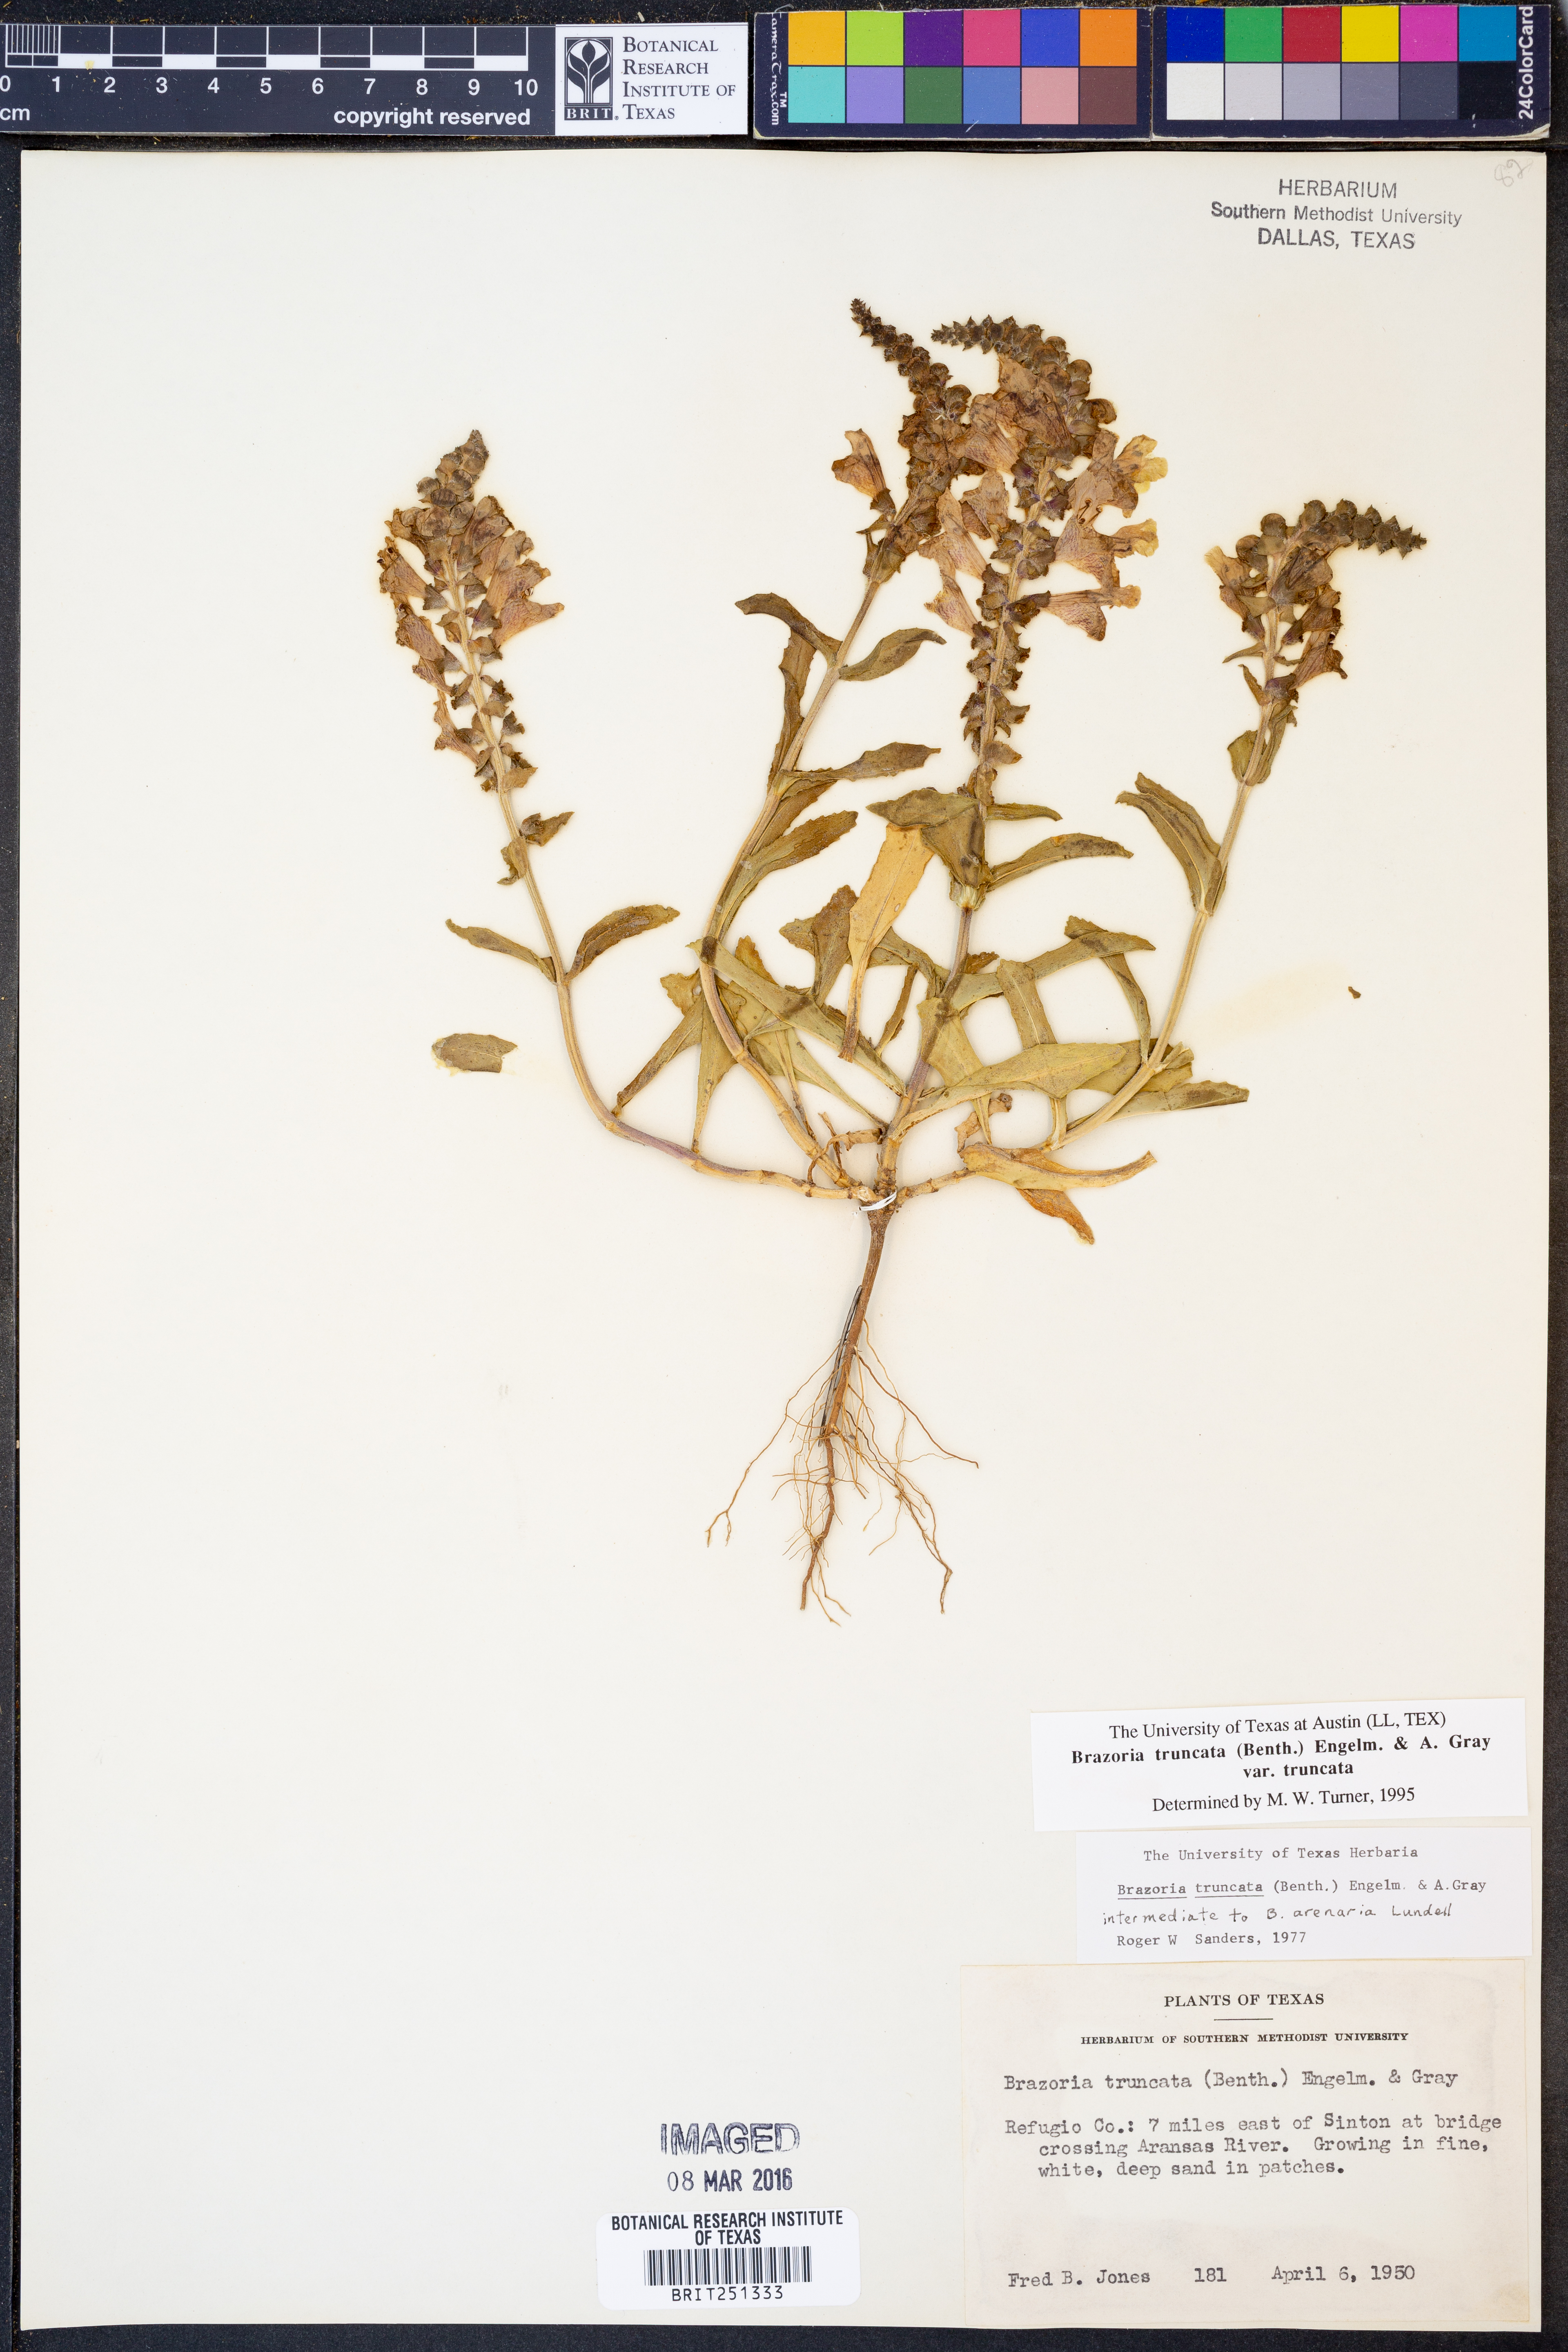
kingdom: Plantae
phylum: Tracheophyta
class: Magnoliopsida
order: Lamiales
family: Lamiaceae
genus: Brazoria
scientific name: Brazoria truncata
